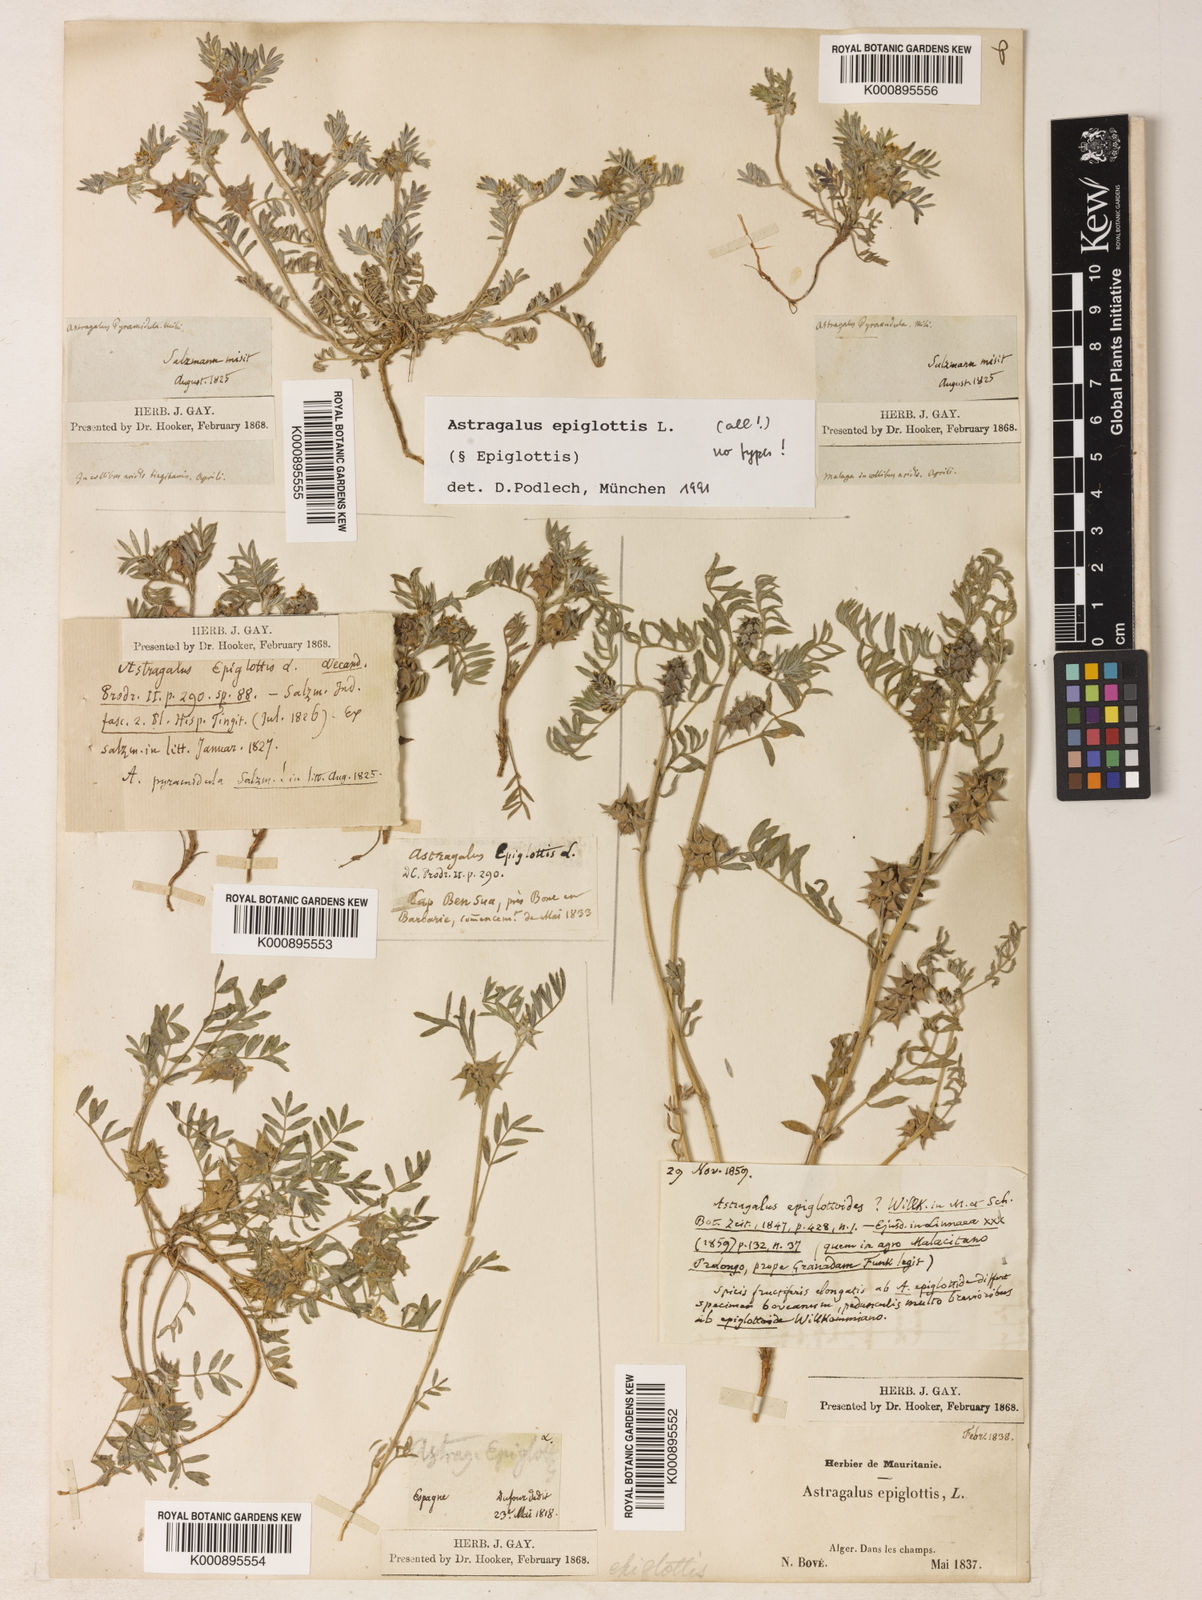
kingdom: Plantae
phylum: Tracheophyta
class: Magnoliopsida
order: Fabales
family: Fabaceae
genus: Biserrula
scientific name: Biserrula epiglottis
